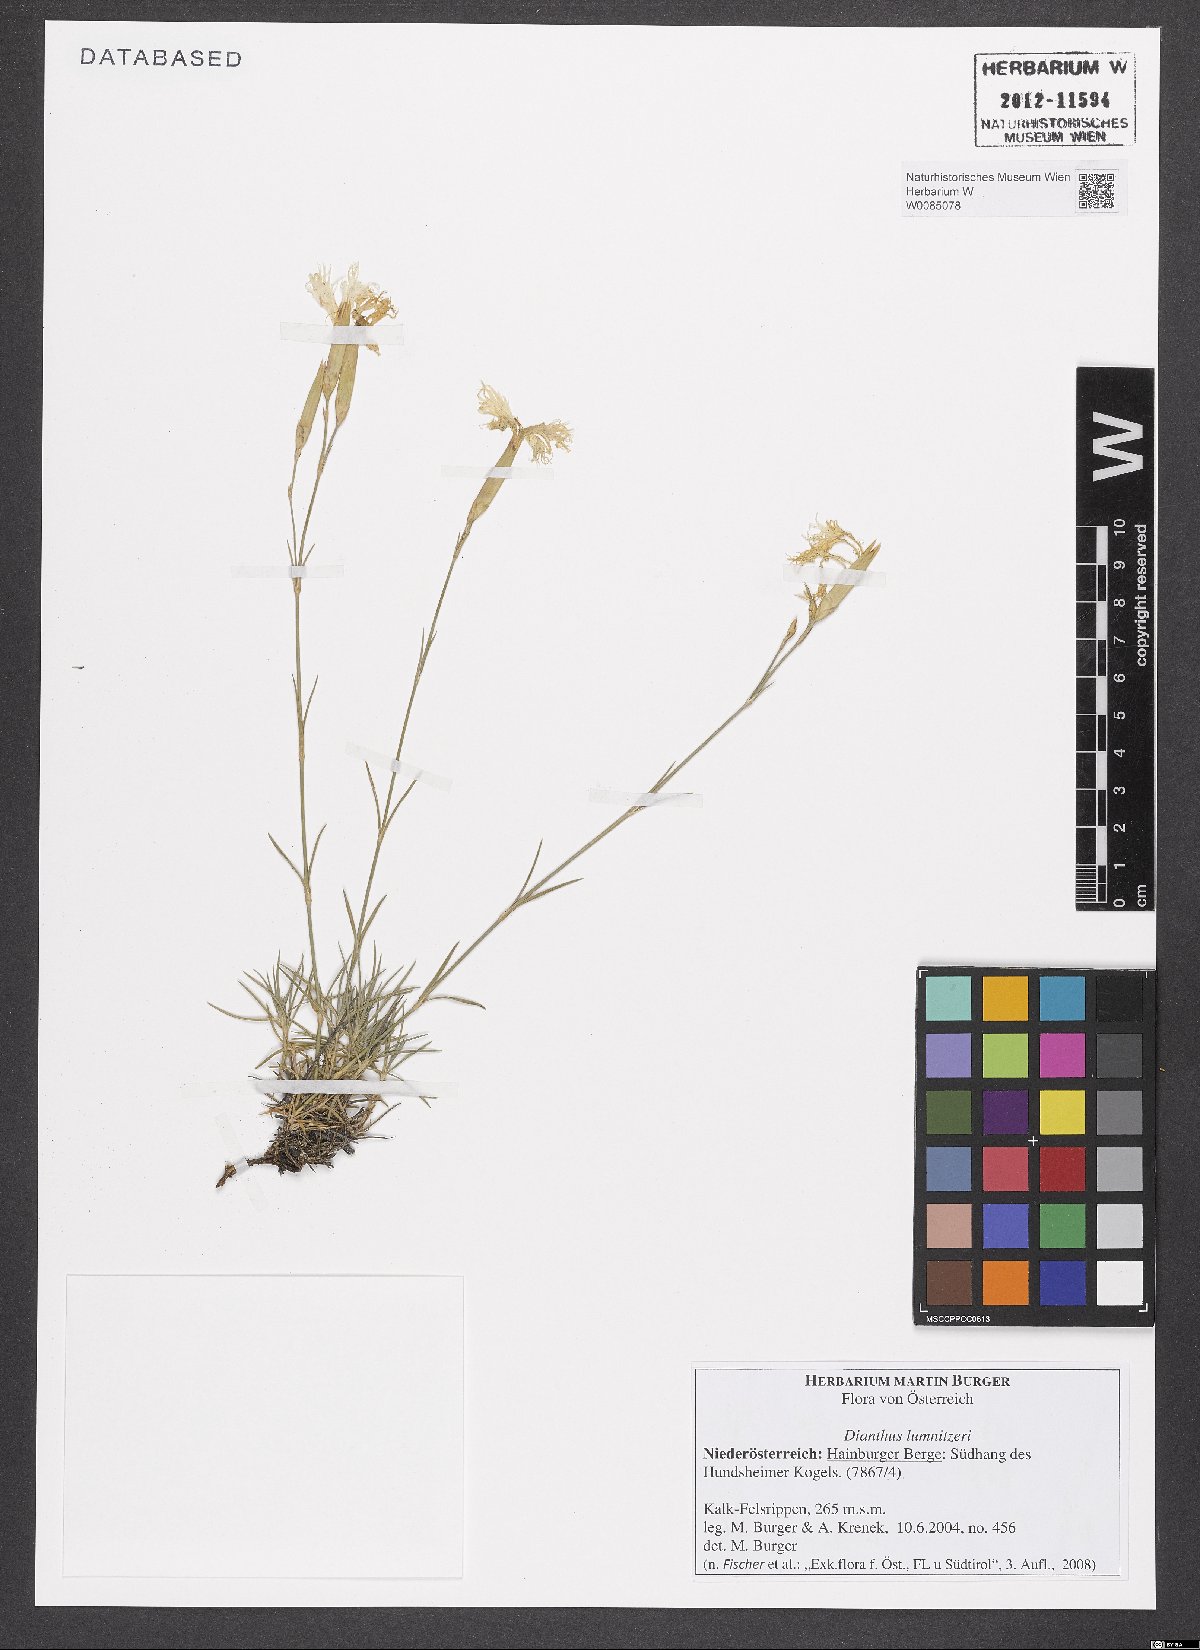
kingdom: Plantae
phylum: Tracheophyta
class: Magnoliopsida
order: Caryophyllales
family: Caryophyllaceae
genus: Dianthus
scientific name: Dianthus praecox
